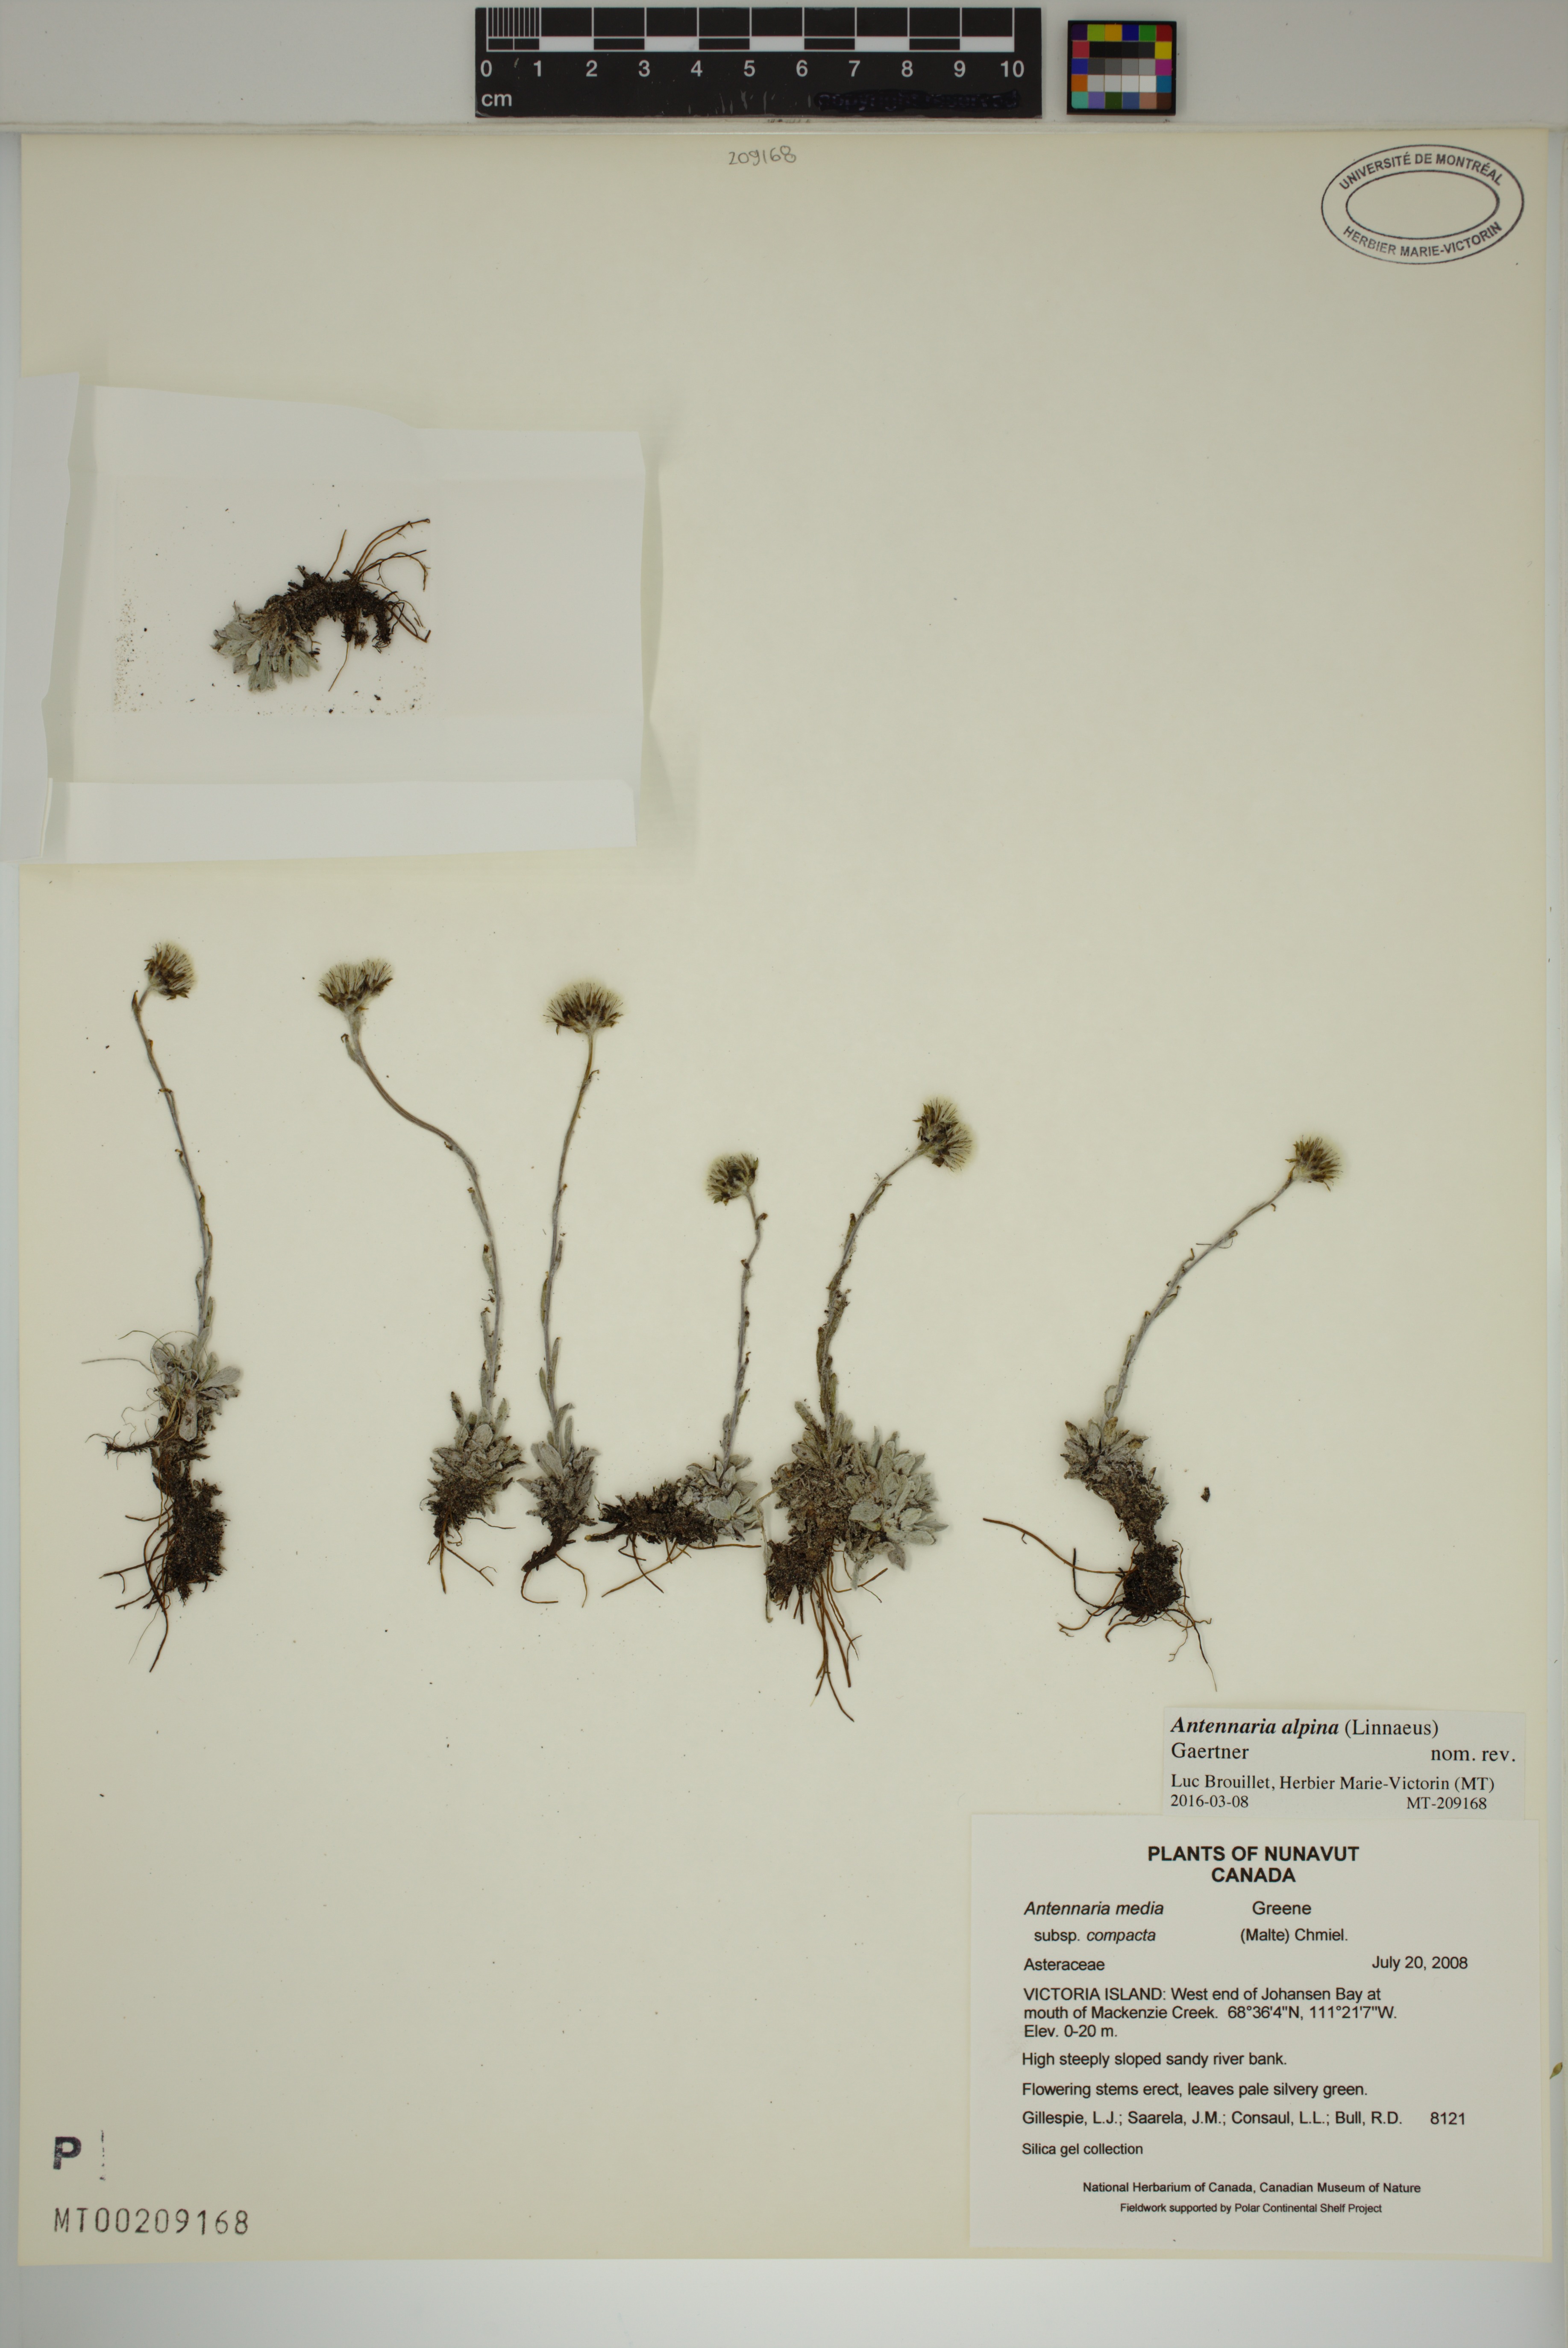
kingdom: Plantae
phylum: Tracheophyta
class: Magnoliopsida
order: Asterales
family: Asteraceae
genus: Antennaria
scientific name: Antennaria alpina
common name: Alpine pussytoes
